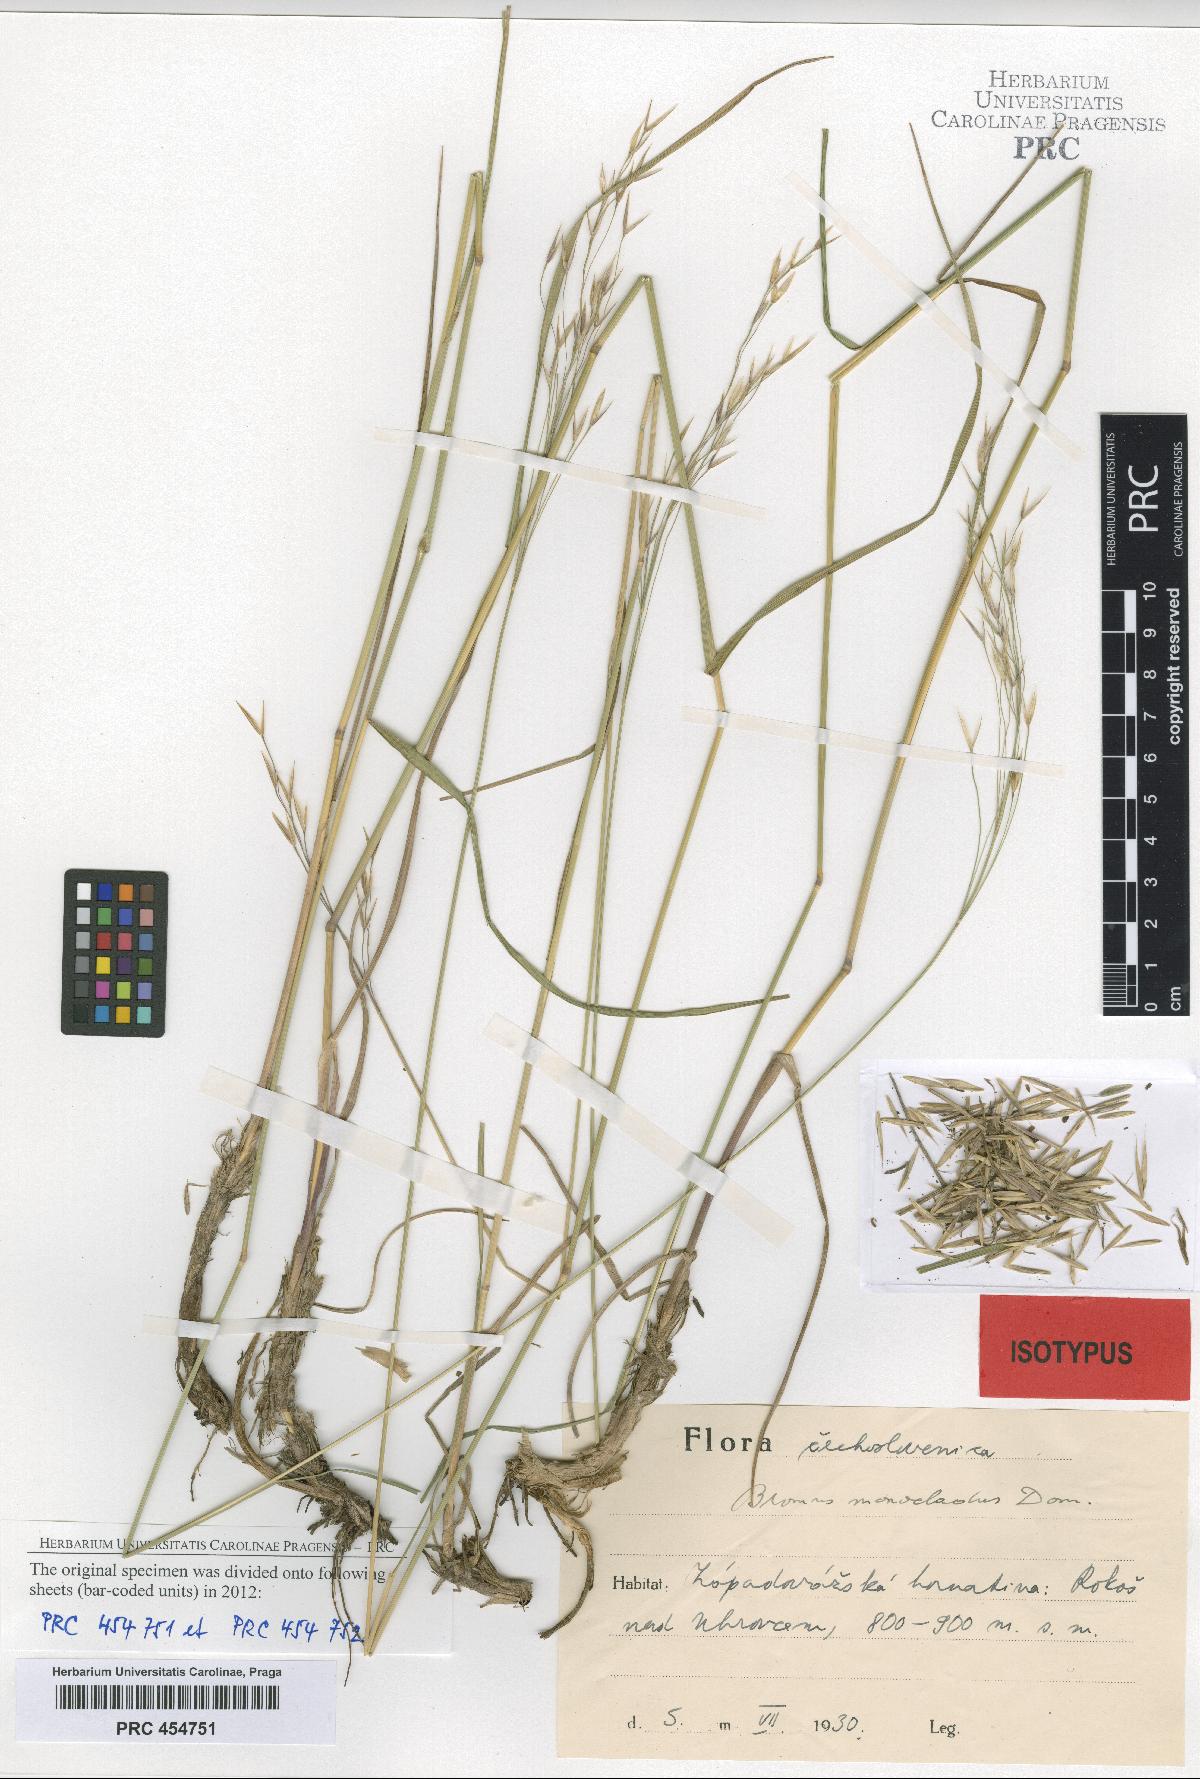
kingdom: Plantae
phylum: Tracheophyta
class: Liliopsida
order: Poales
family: Poaceae
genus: Bromus
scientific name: Bromus pannonicus
